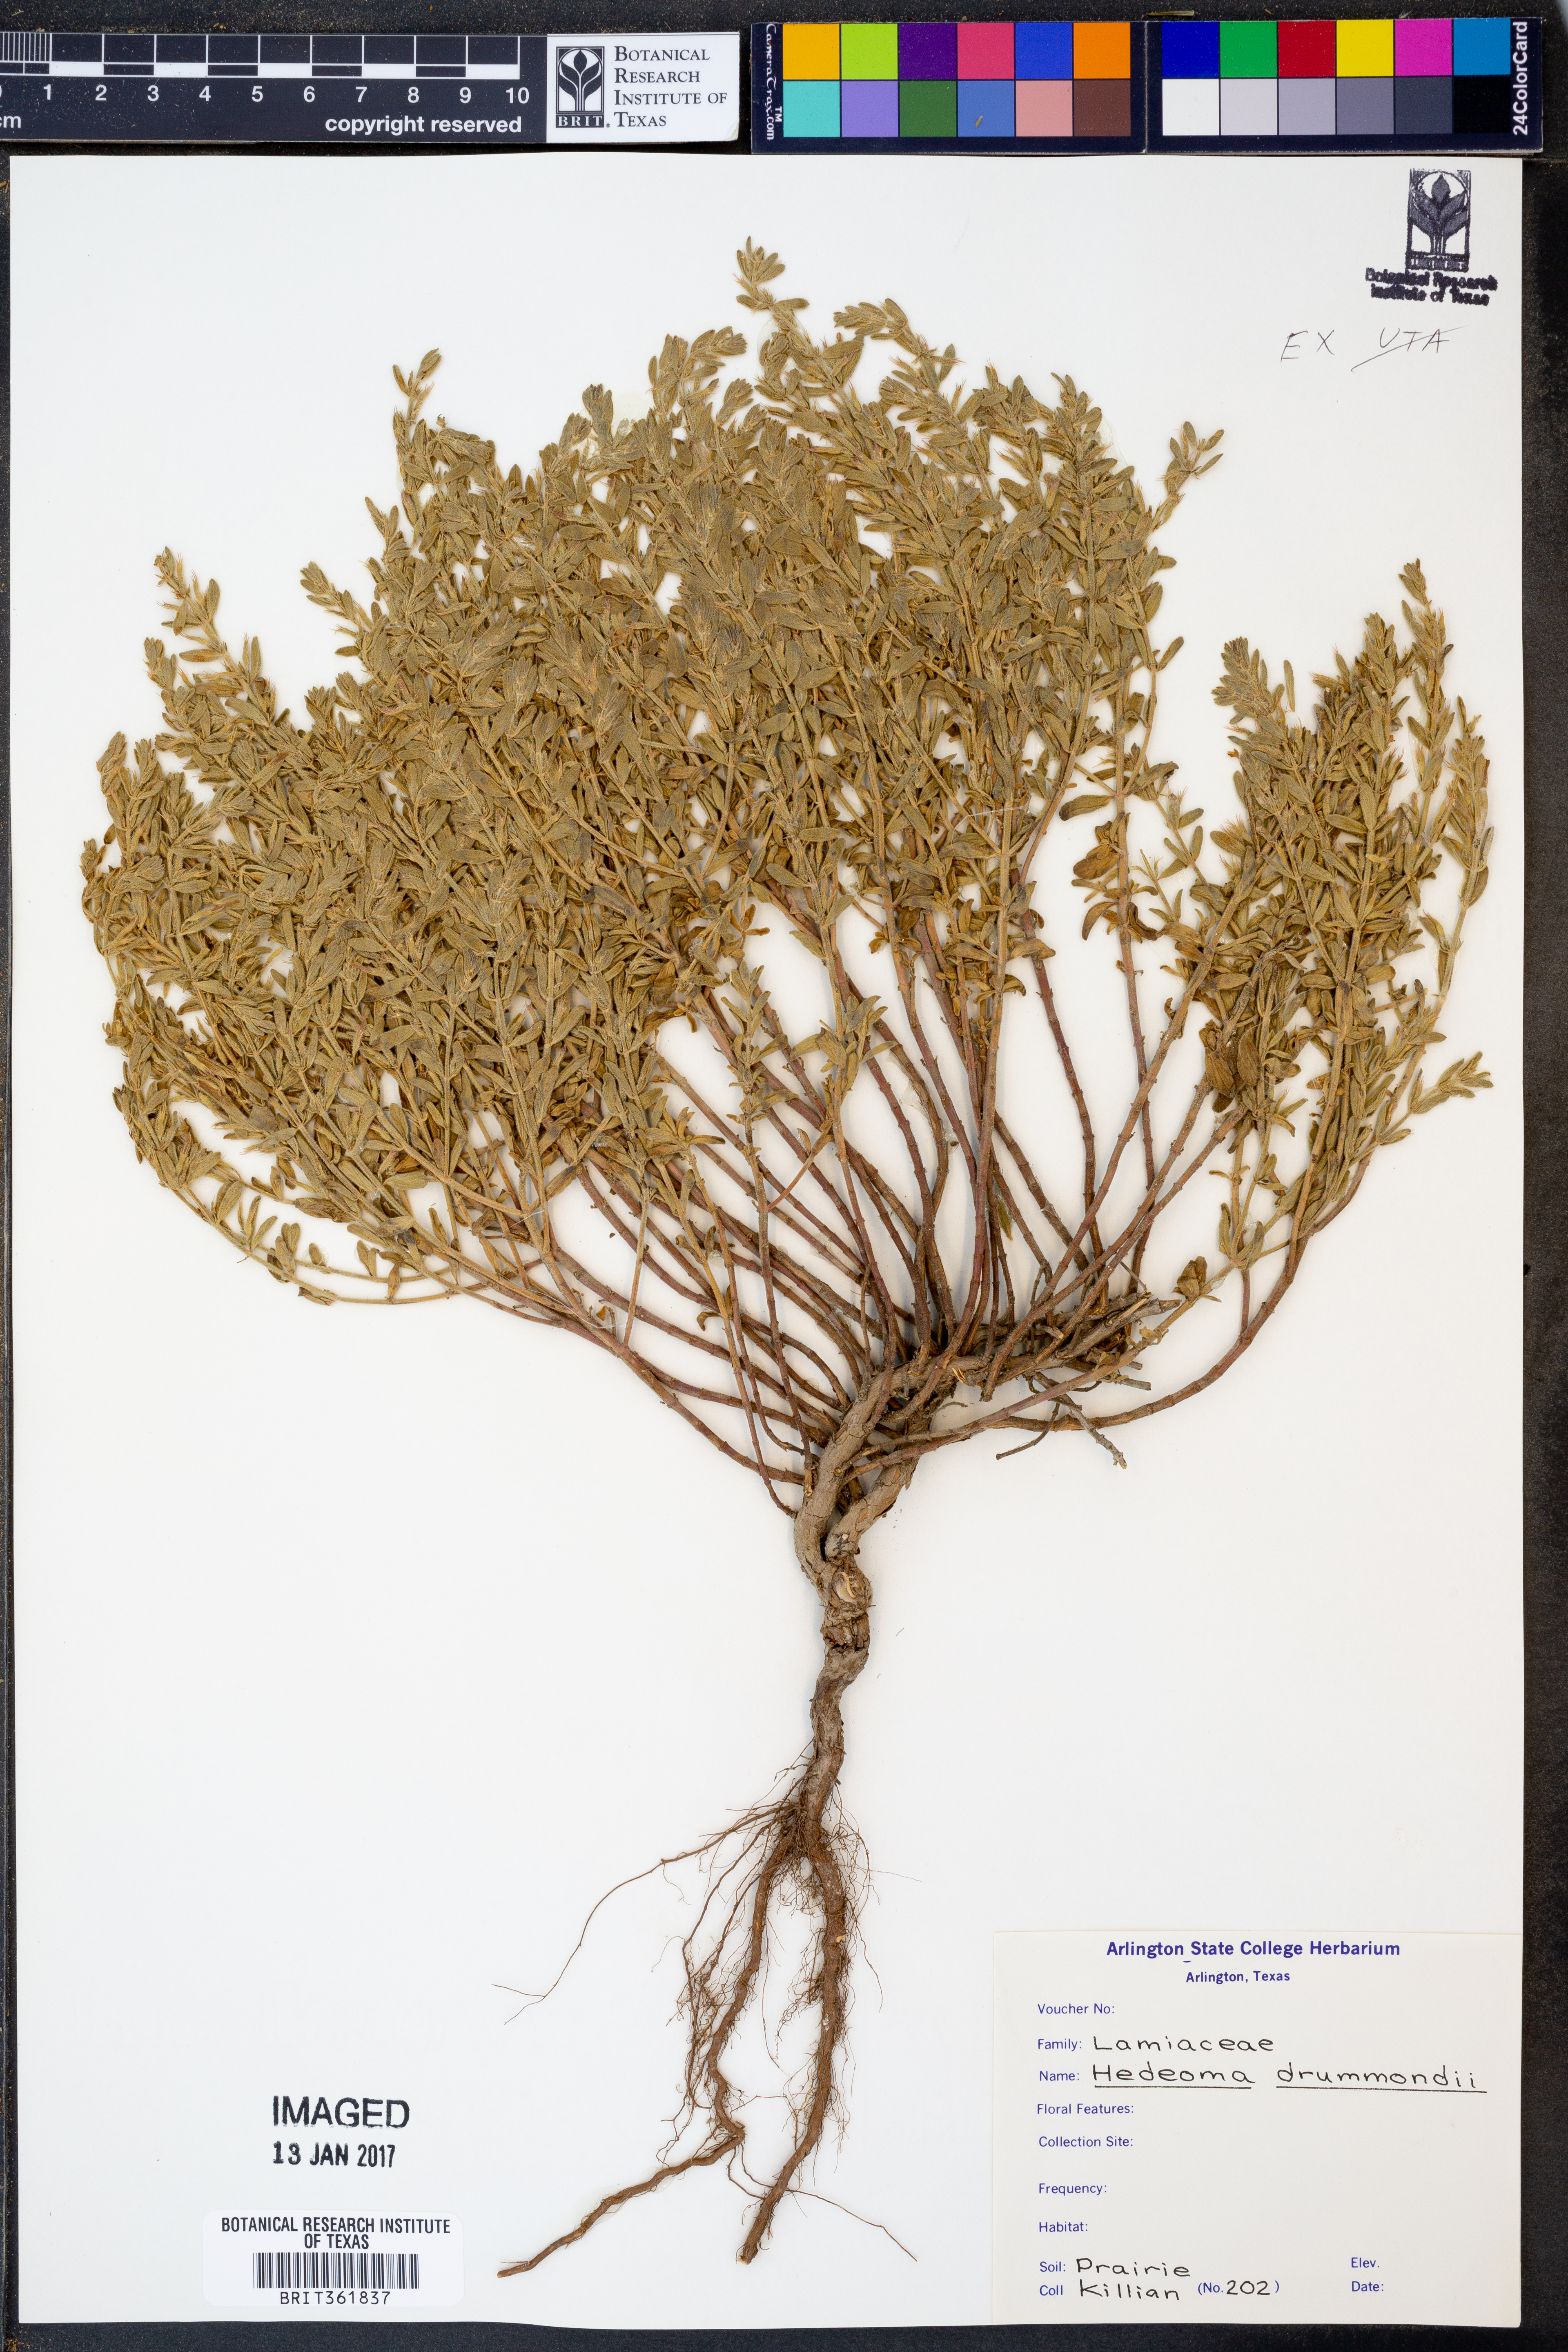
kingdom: Plantae
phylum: Tracheophyta
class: Magnoliopsida
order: Lamiales
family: Lamiaceae
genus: Hedeoma
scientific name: Hedeoma drummondii
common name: New mexico pennyroyal
